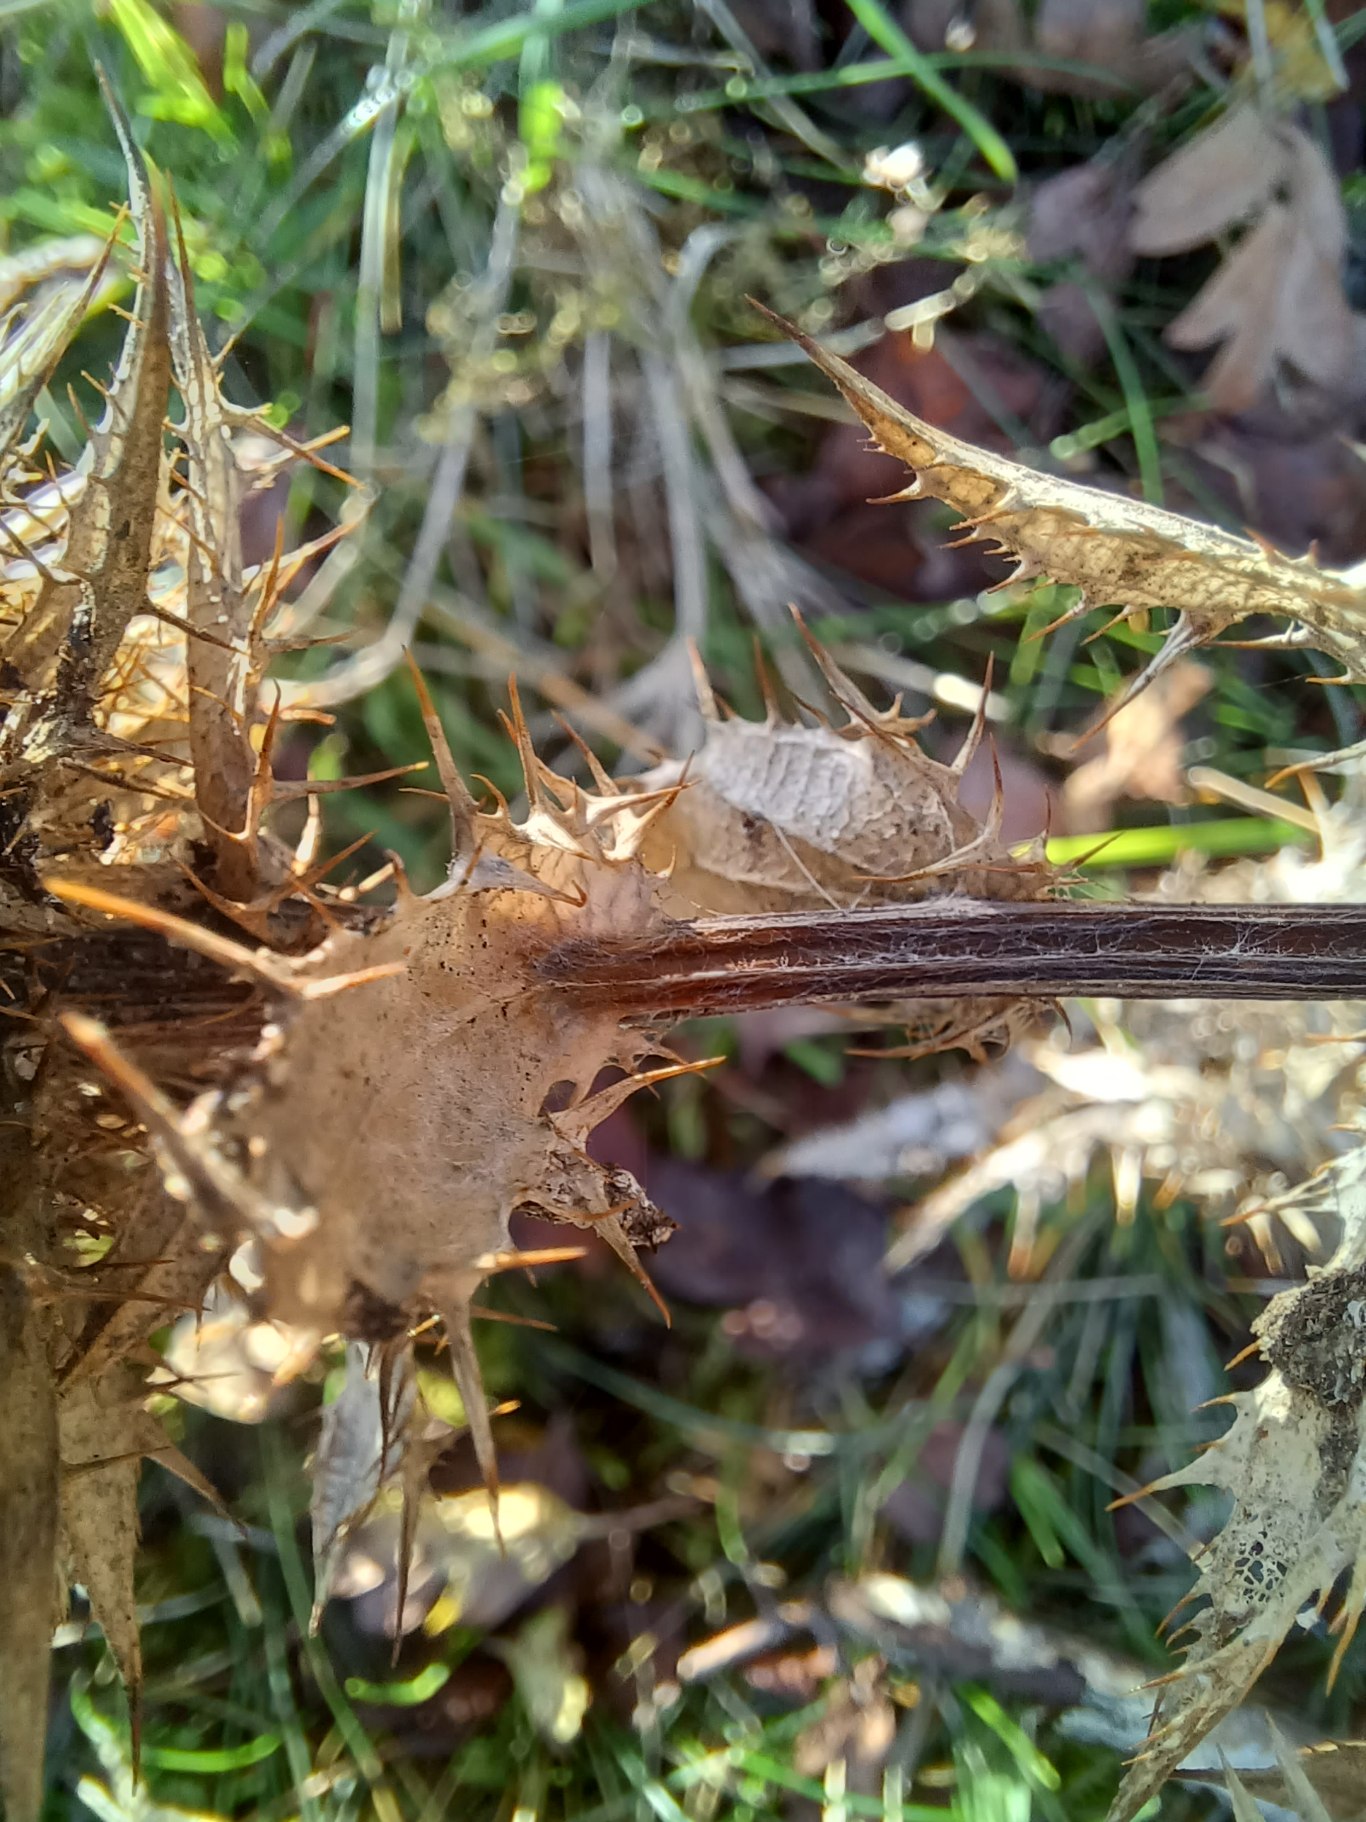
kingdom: Plantae
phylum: Tracheophyta
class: Magnoliopsida
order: Asterales
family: Asteraceae
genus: Carlina
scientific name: Carlina vulgaris
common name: Bakketidsel
